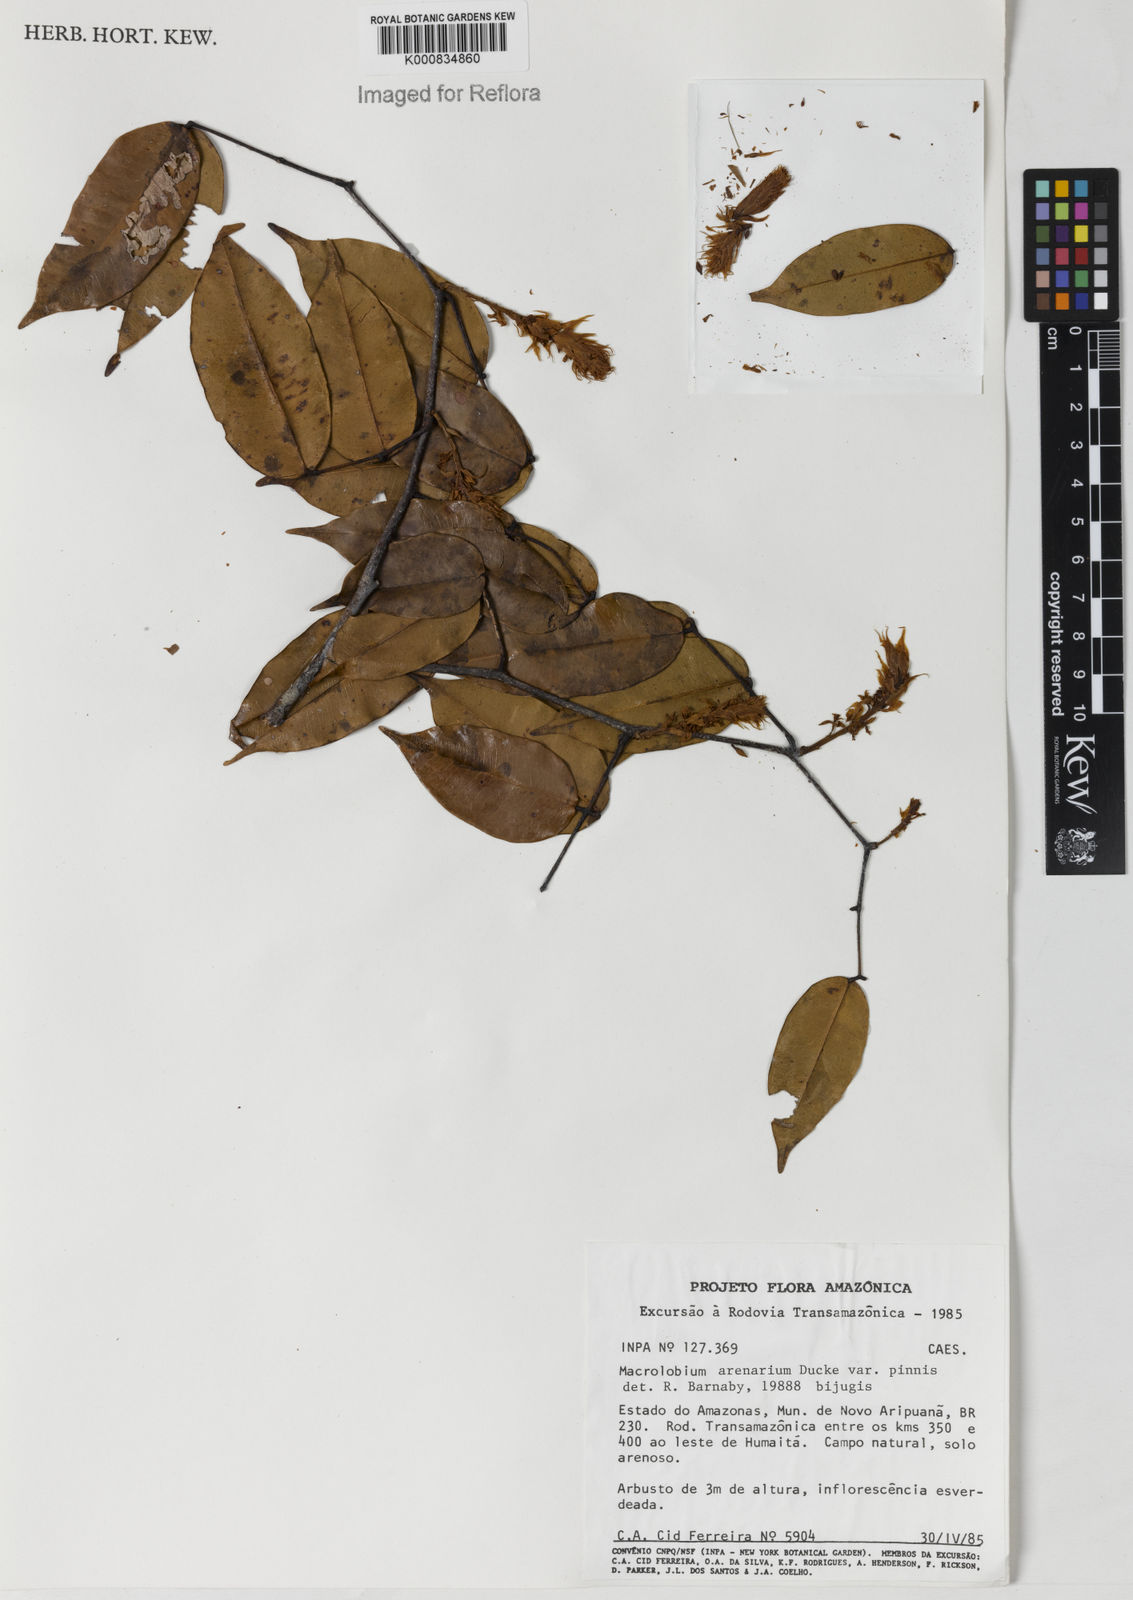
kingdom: Plantae
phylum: Tracheophyta
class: Magnoliopsida
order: Fabales
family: Fabaceae
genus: Macrolobium
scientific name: Macrolobium arenarium
